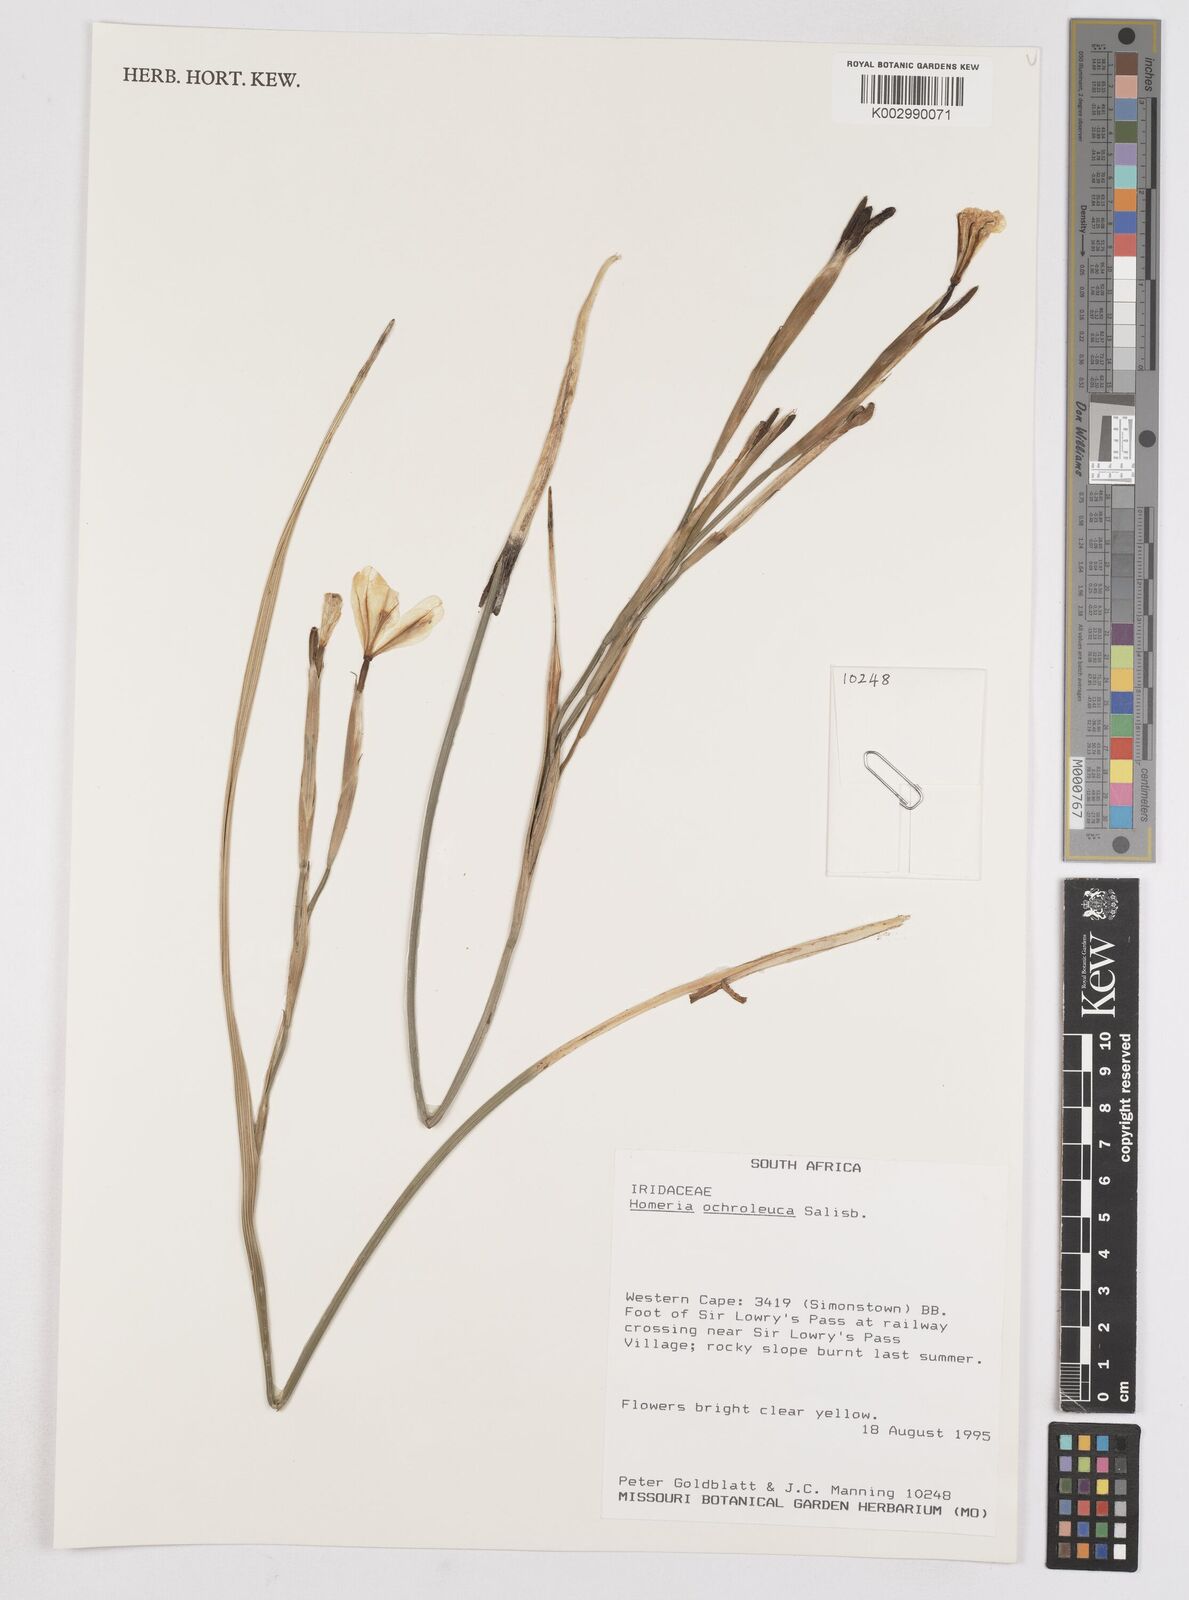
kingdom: Plantae
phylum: Tracheophyta
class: Liliopsida
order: Asparagales
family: Iridaceae
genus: Moraea
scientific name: Moraea ochroleuca
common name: Red tulp
